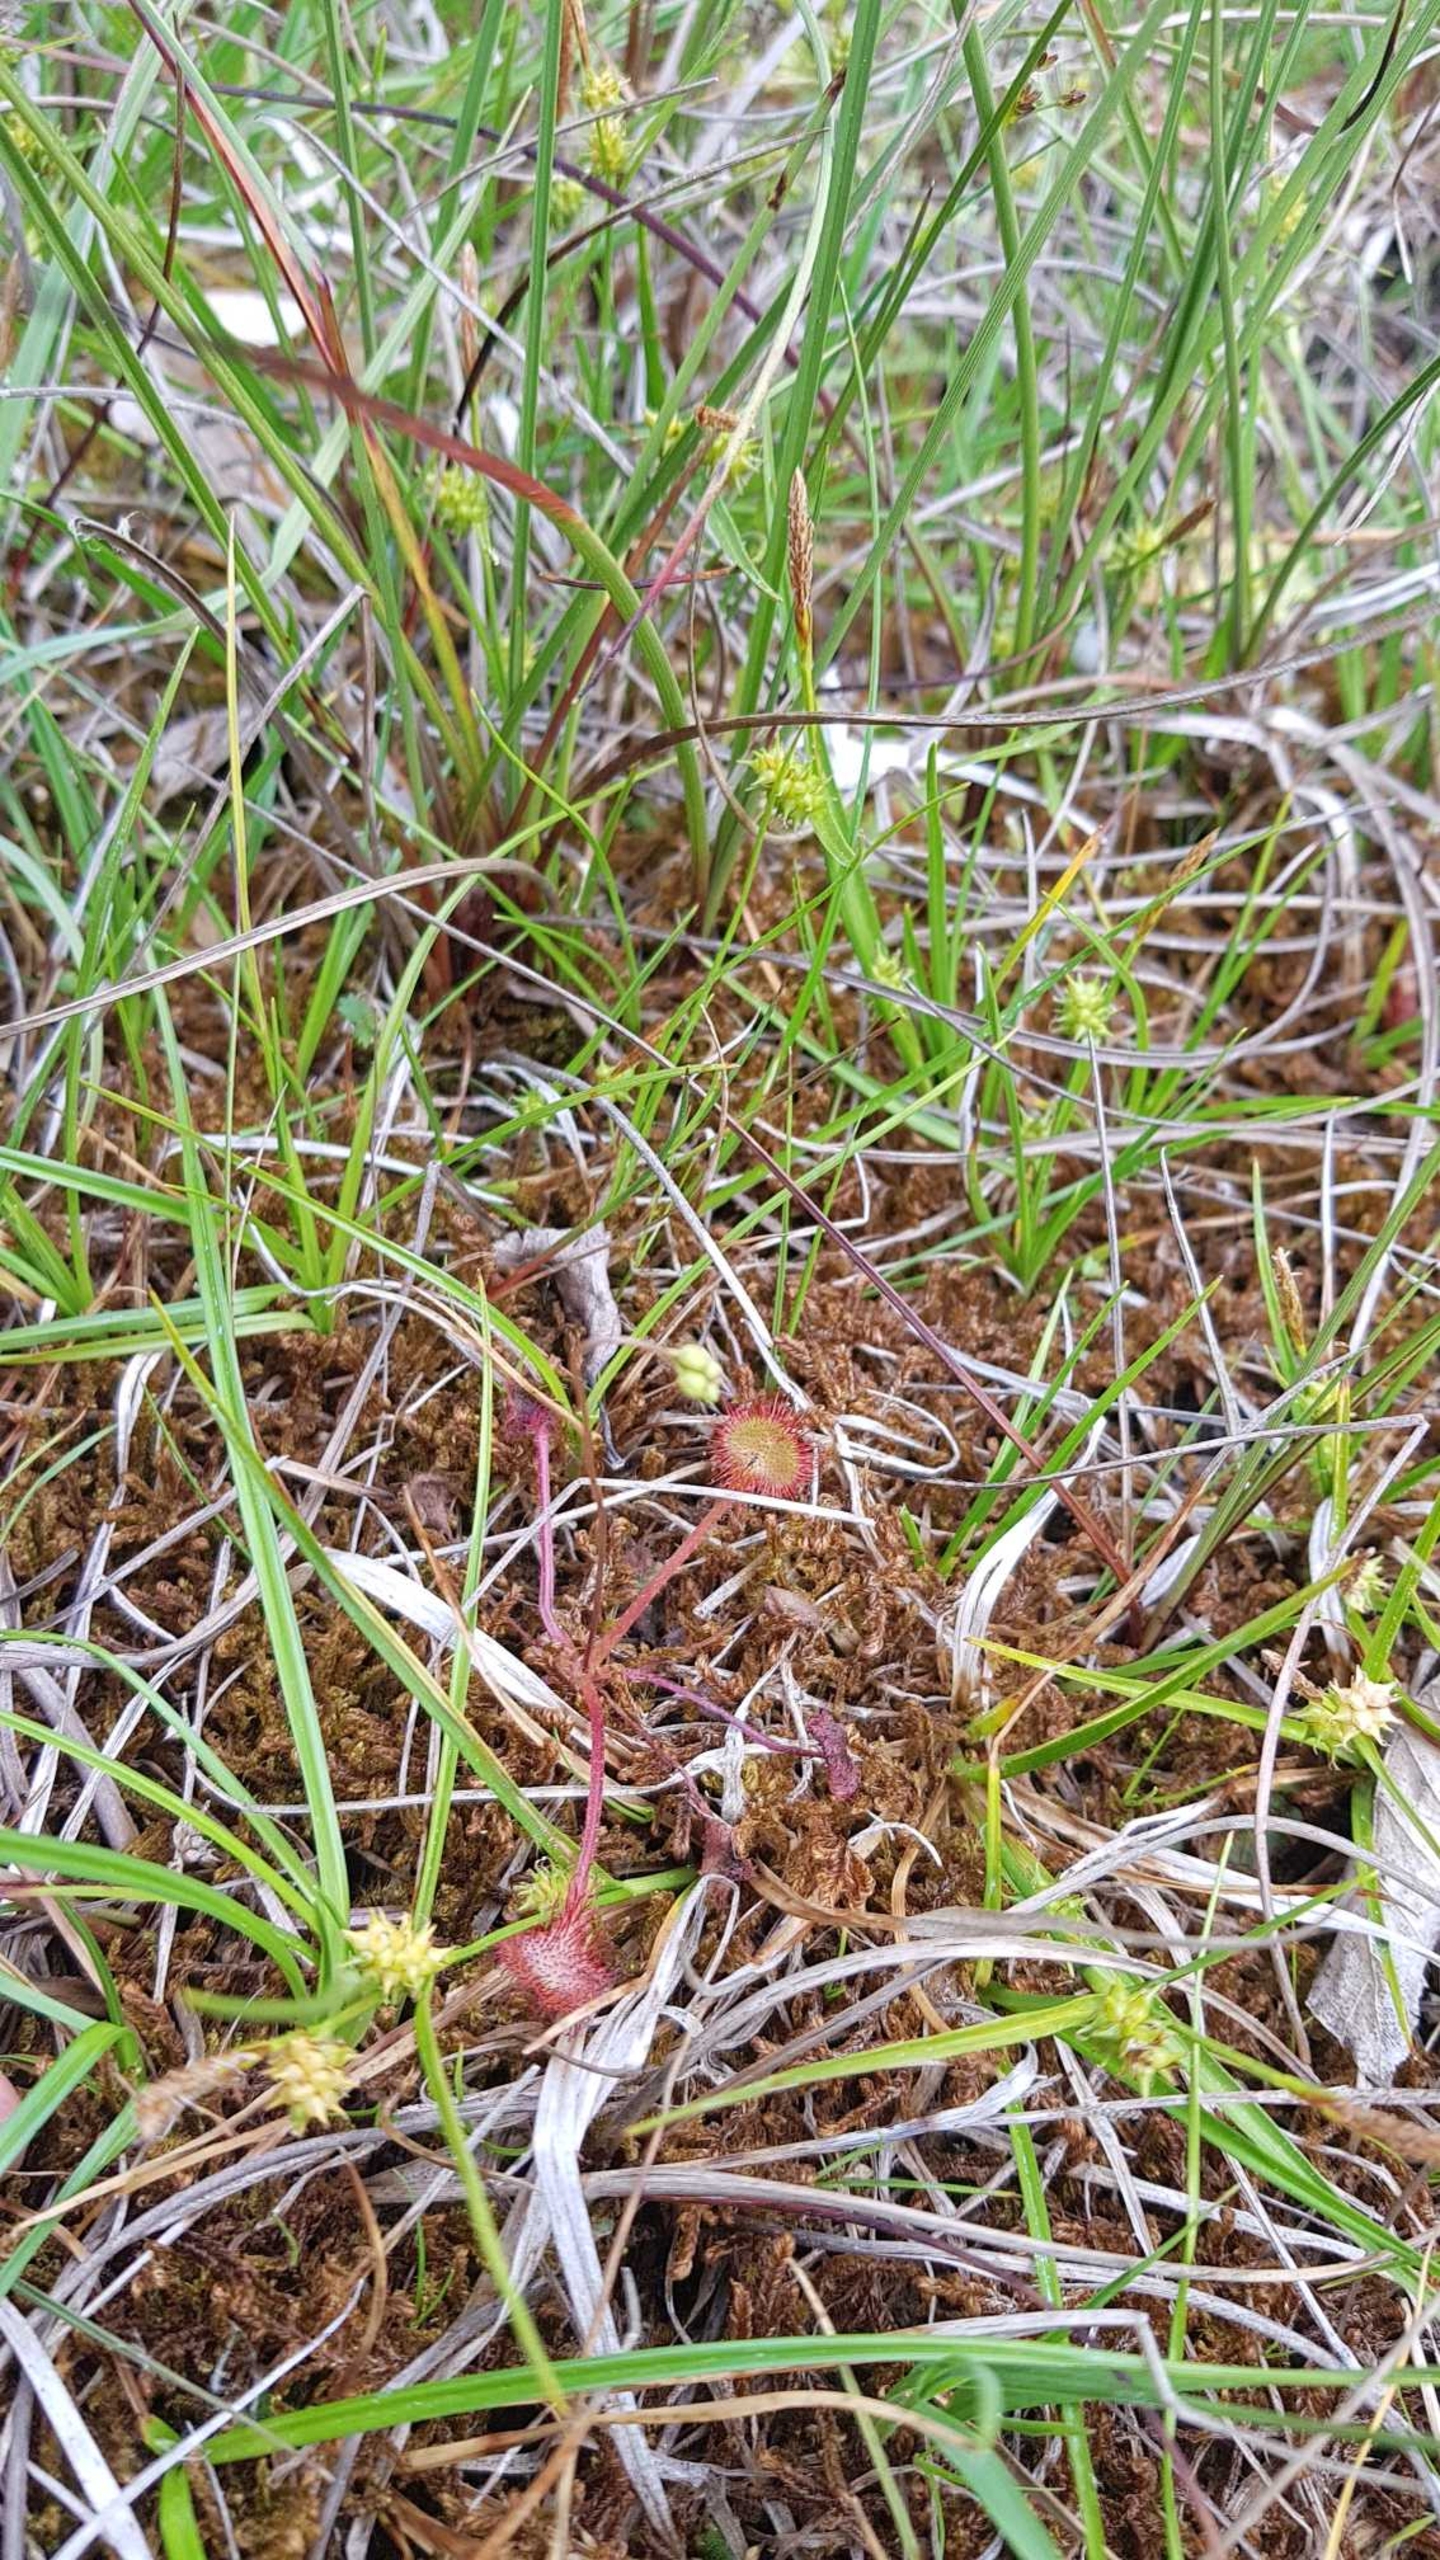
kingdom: Plantae
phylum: Tracheophyta
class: Magnoliopsida
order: Caryophyllales
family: Droseraceae
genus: Drosera
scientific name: Drosera rotundifolia
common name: Rundbladet soldug
